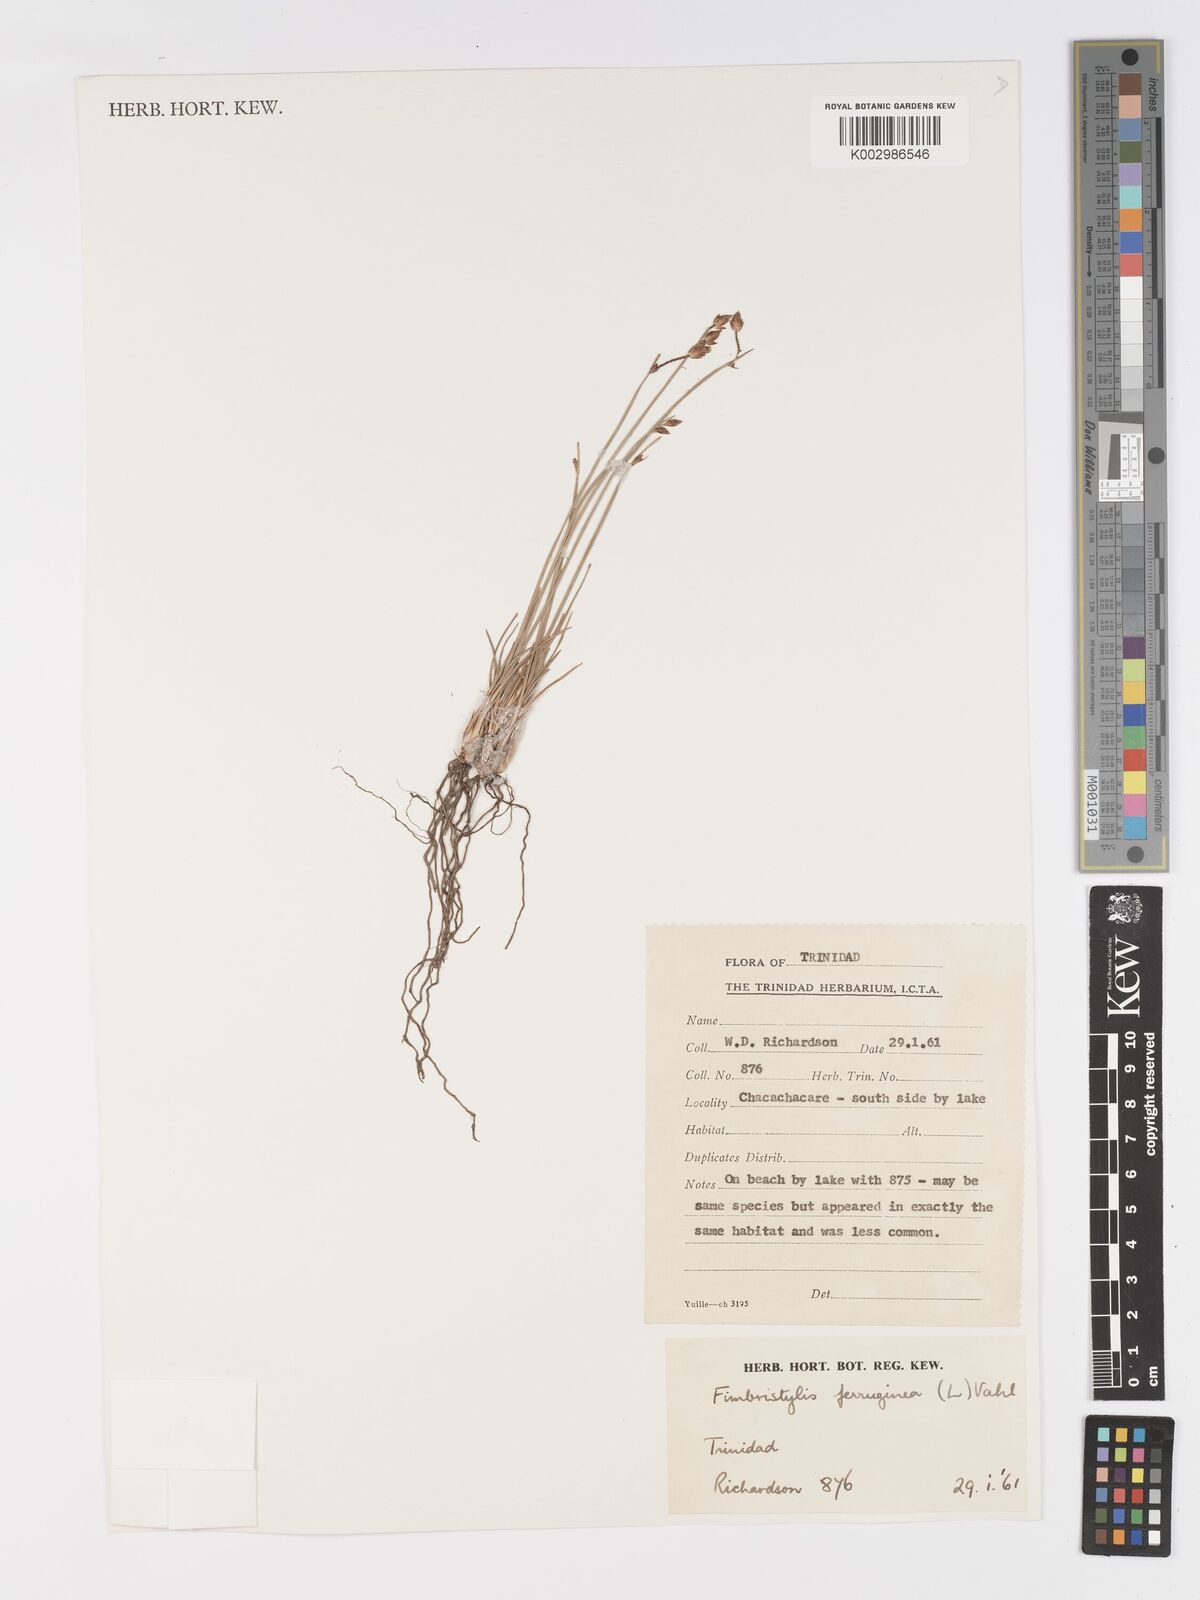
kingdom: Plantae
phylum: Tracheophyta
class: Liliopsida
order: Poales
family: Cyperaceae
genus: Fimbristylis
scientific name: Fimbristylis ferruginea
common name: West indian fimbry
